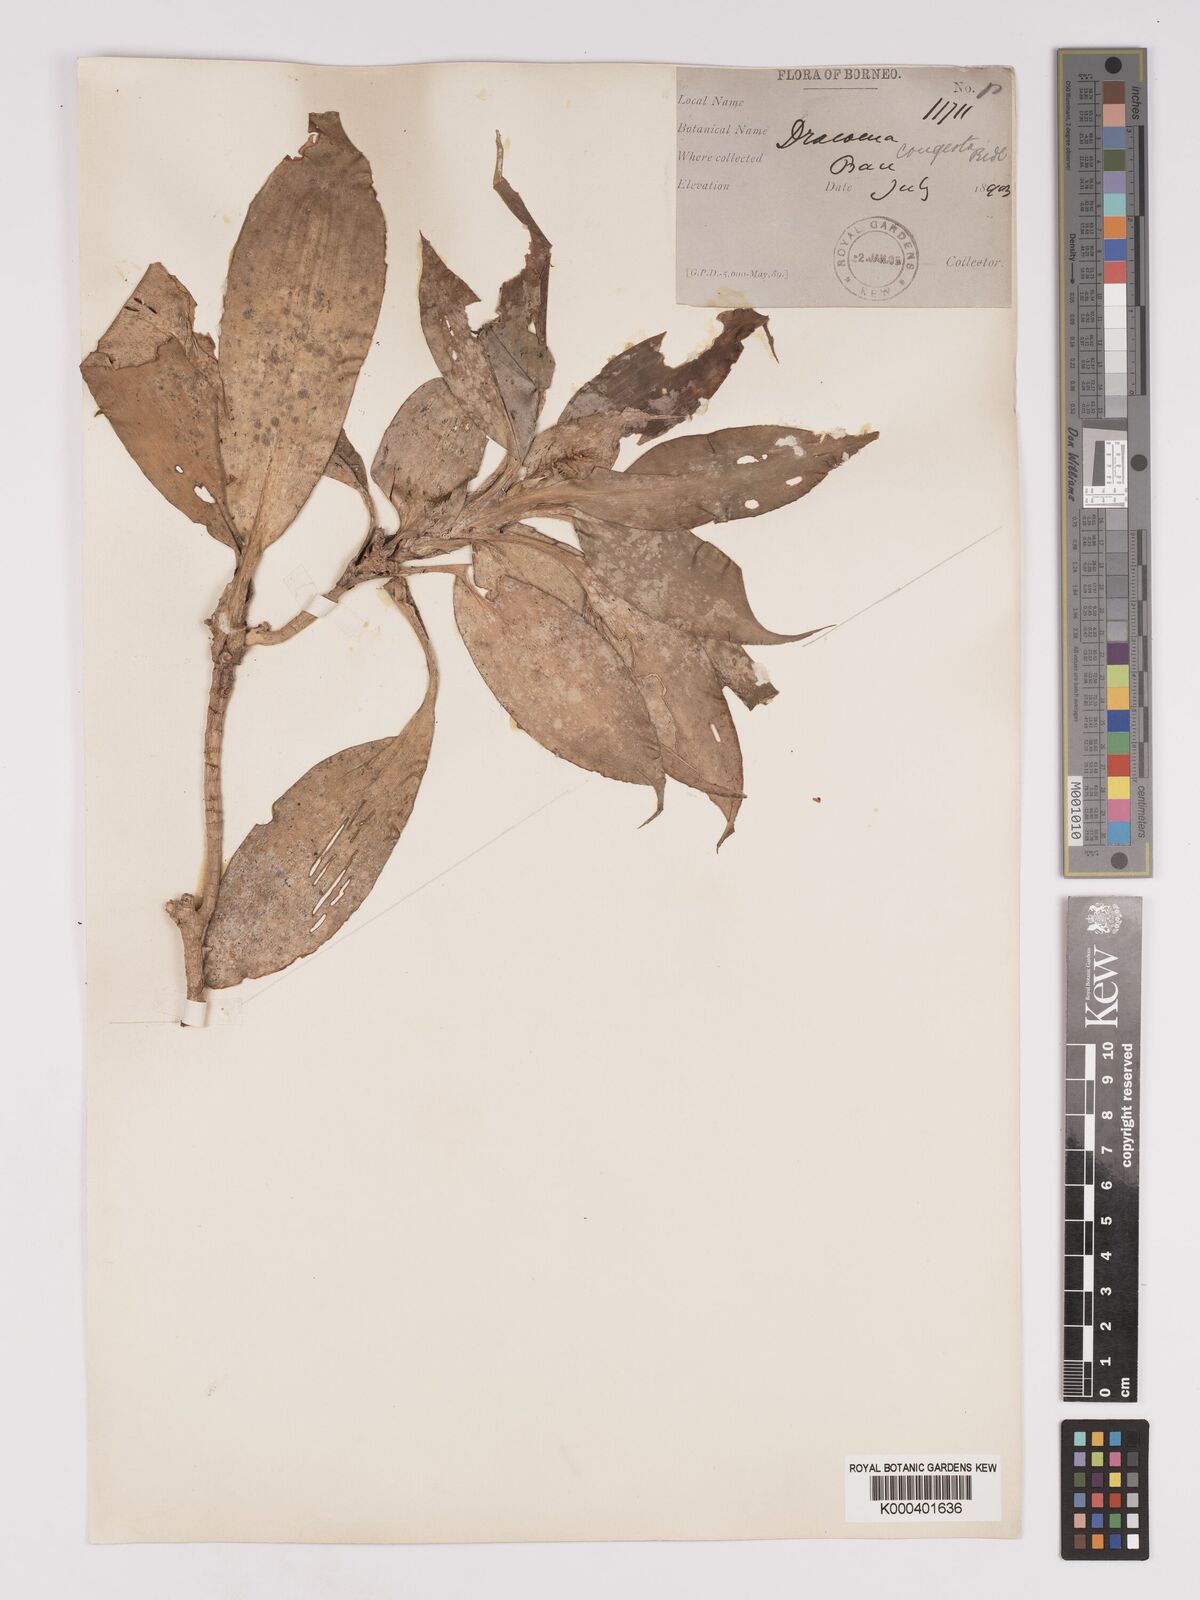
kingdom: Plantae
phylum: Tracheophyta
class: Liliopsida
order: Asparagales
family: Asparagaceae
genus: Dracaena
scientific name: Dracaena chiniana
